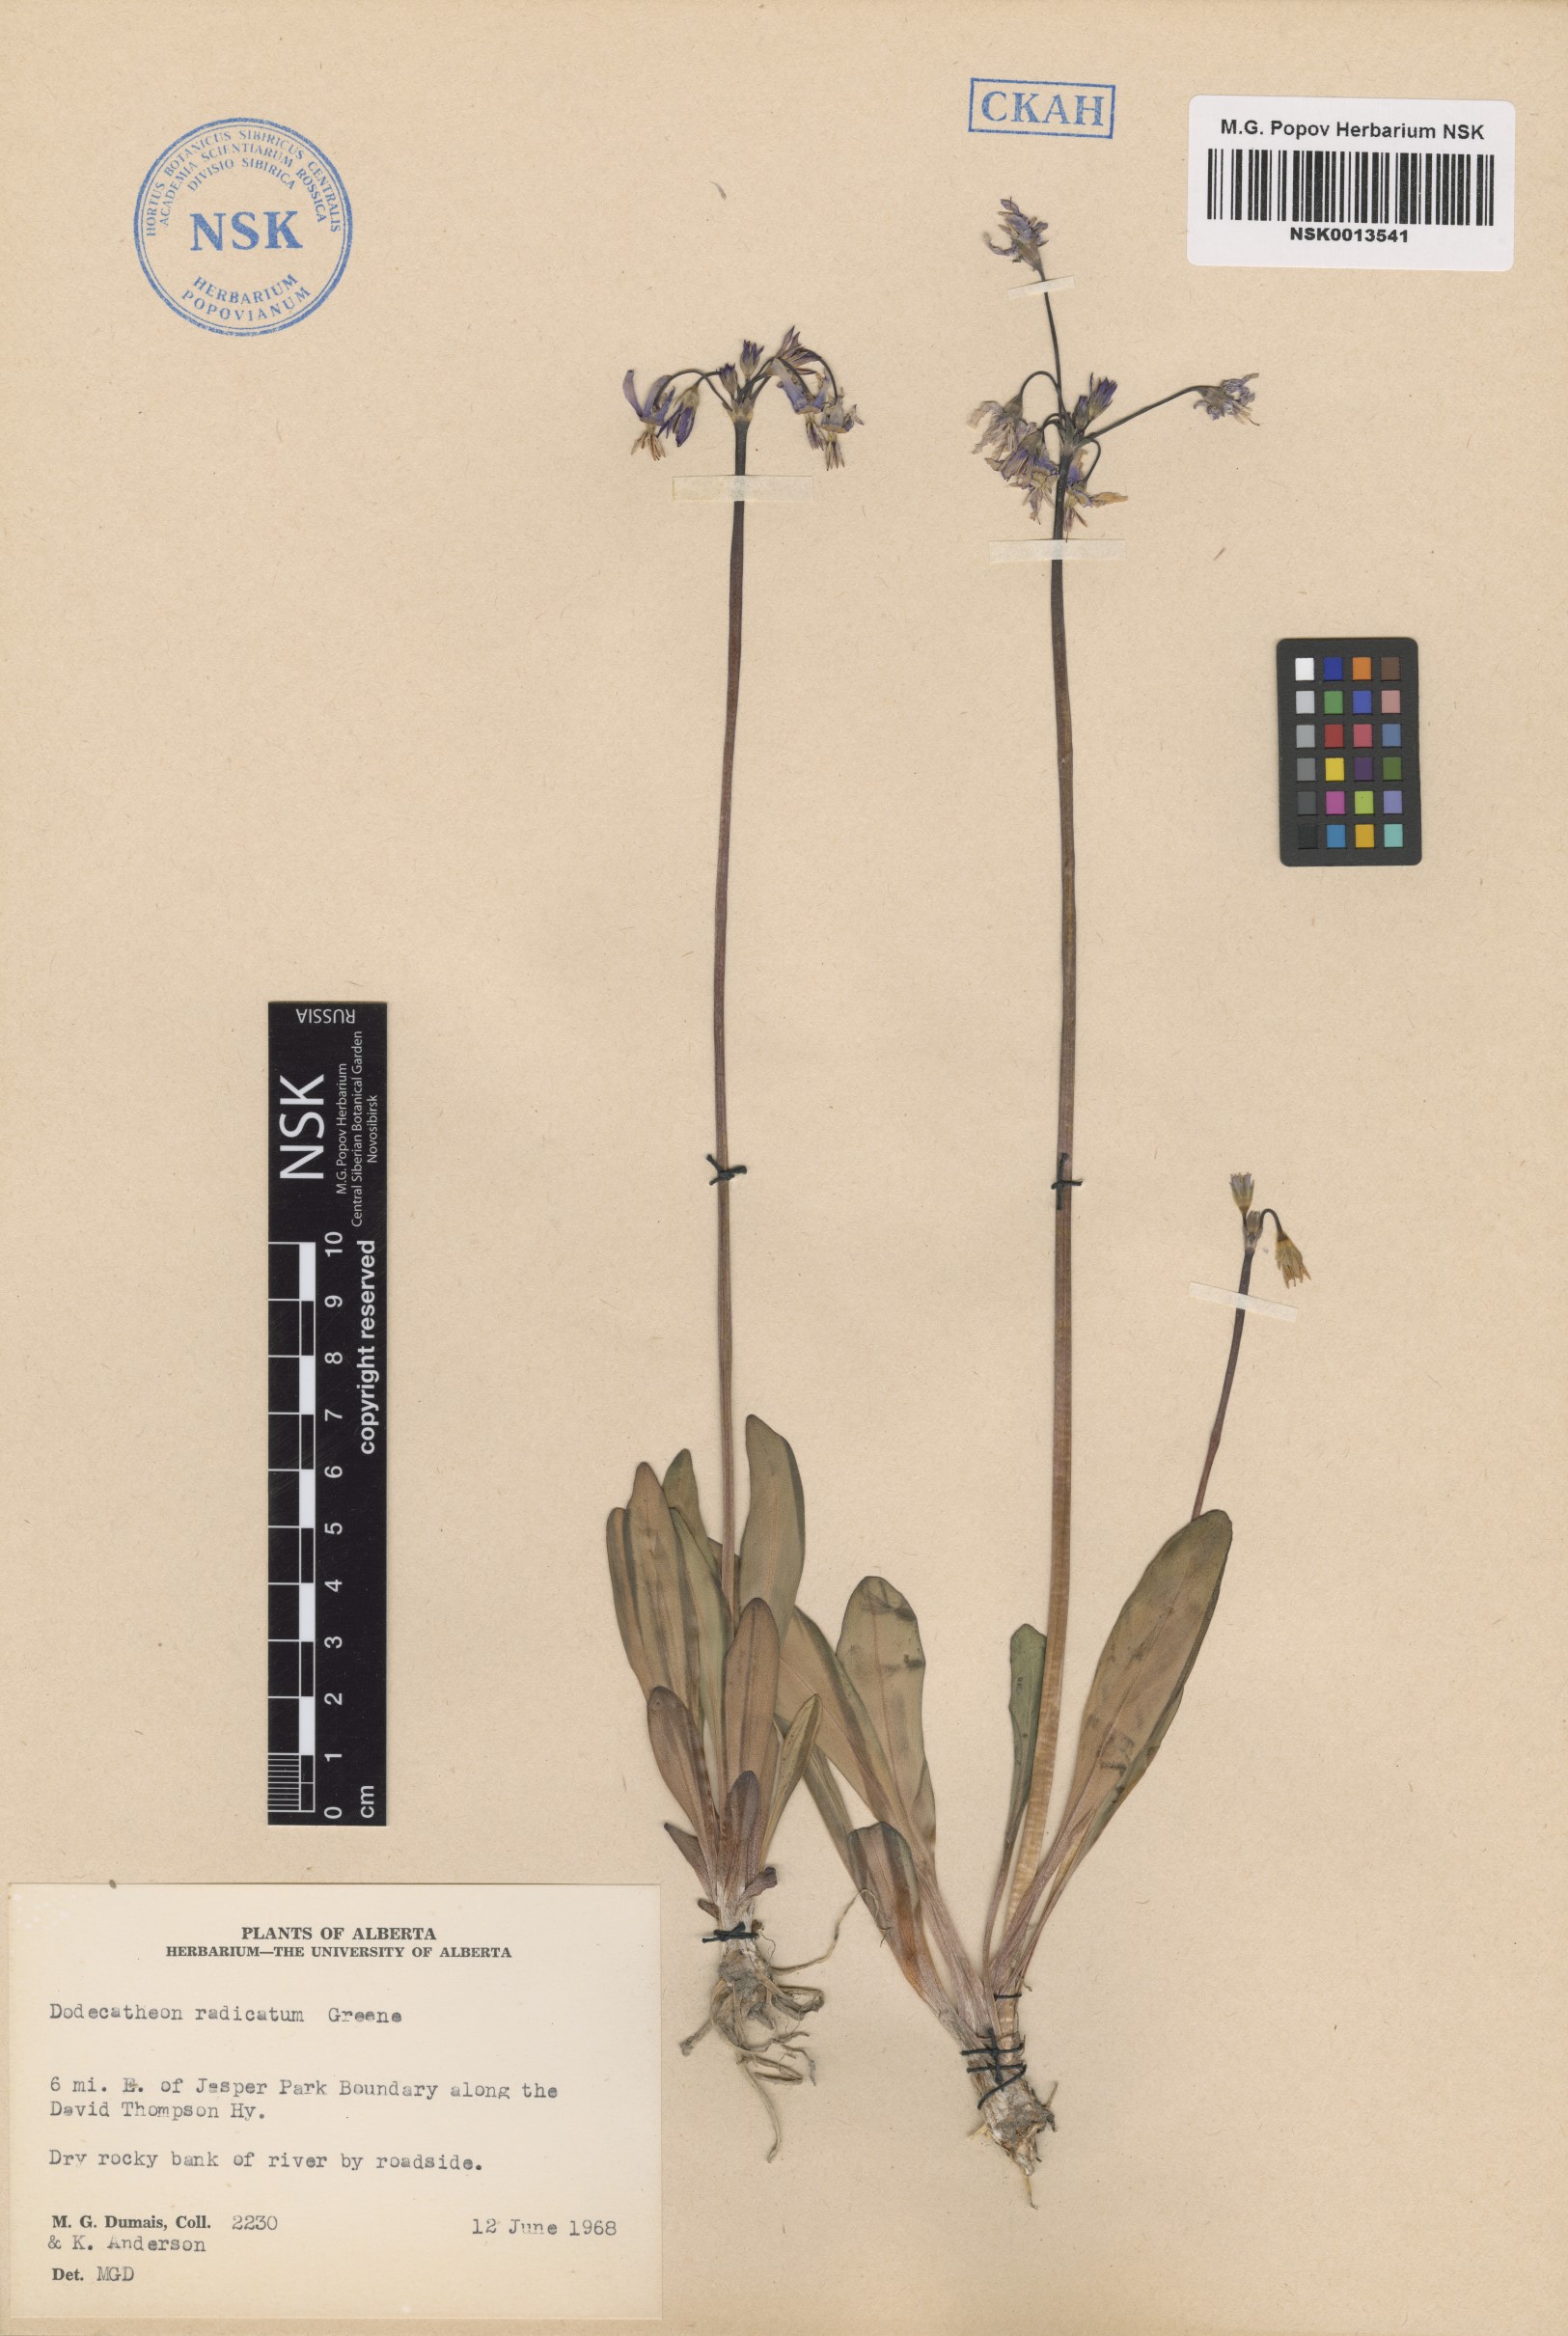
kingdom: Plantae
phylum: Tracheophyta
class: Magnoliopsida
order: Ericales
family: Primulaceae
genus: Dodecatheon
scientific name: Dodecatheon pulchellum
